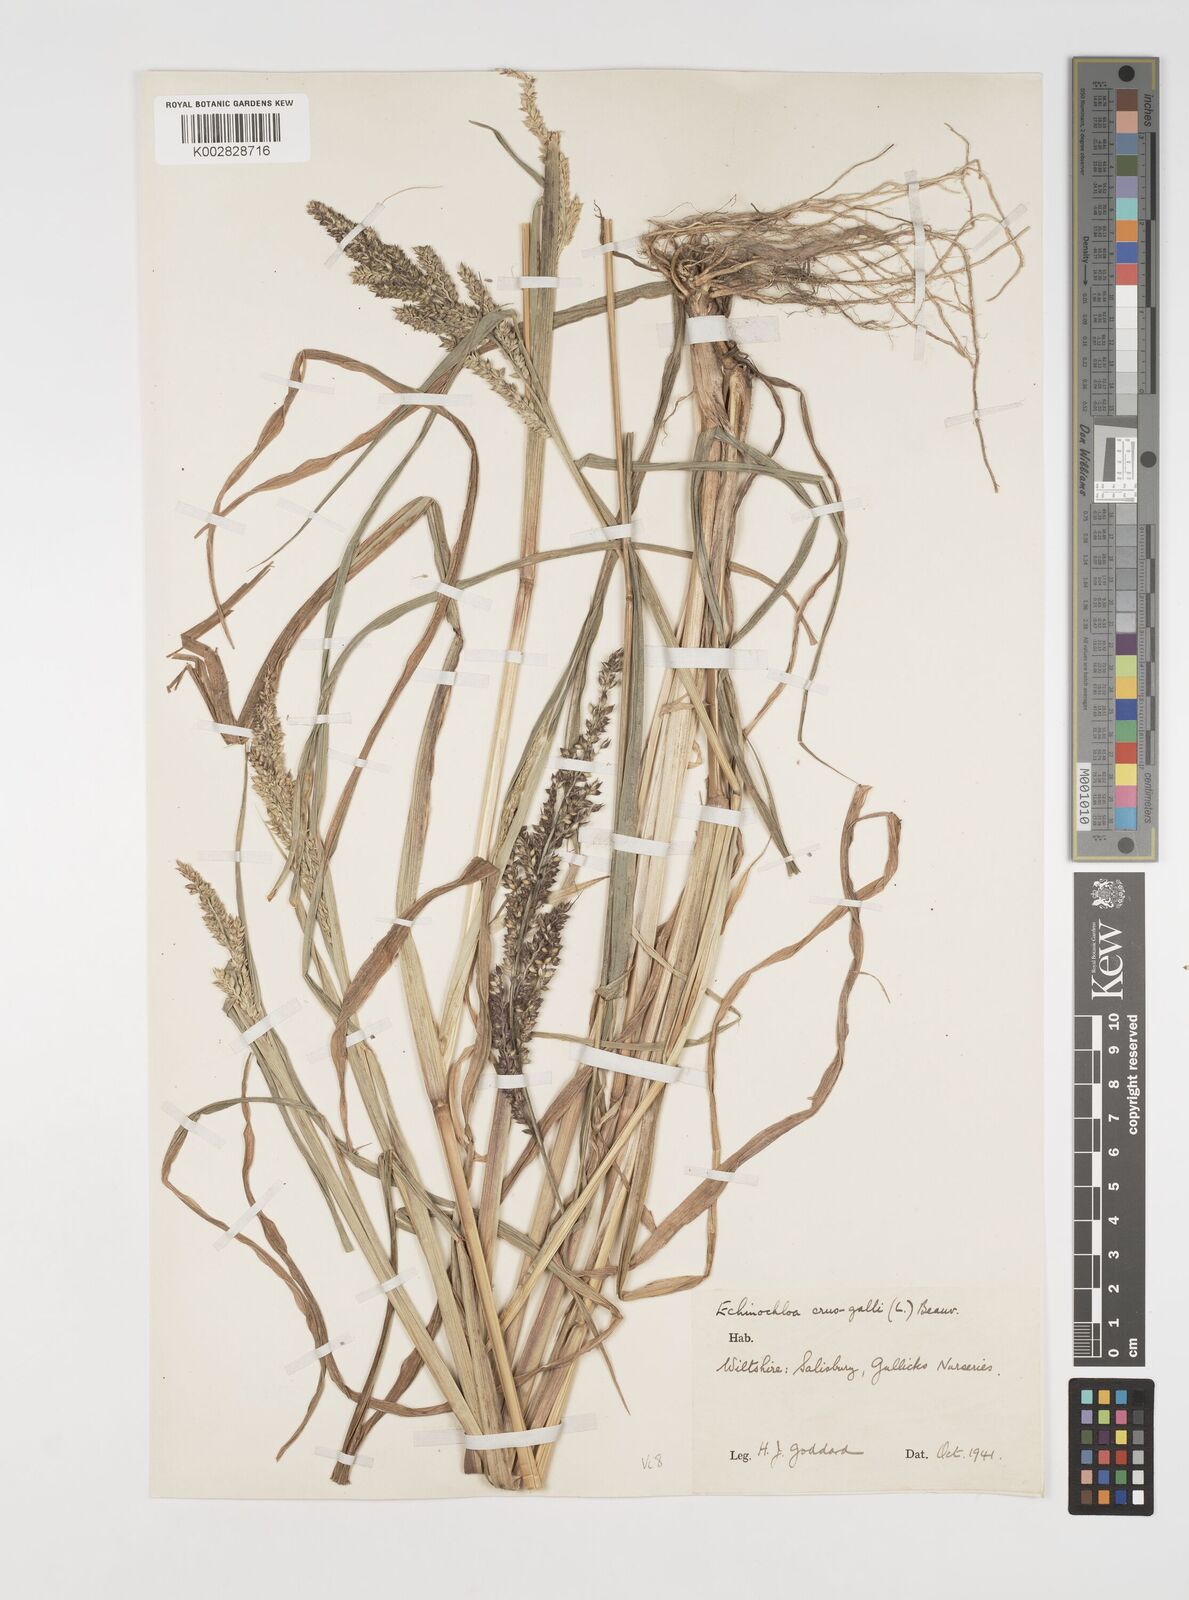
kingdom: Plantae
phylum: Tracheophyta
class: Liliopsida
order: Poales
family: Poaceae
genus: Echinochloa
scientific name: Echinochloa crus-galli
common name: Cockspur
